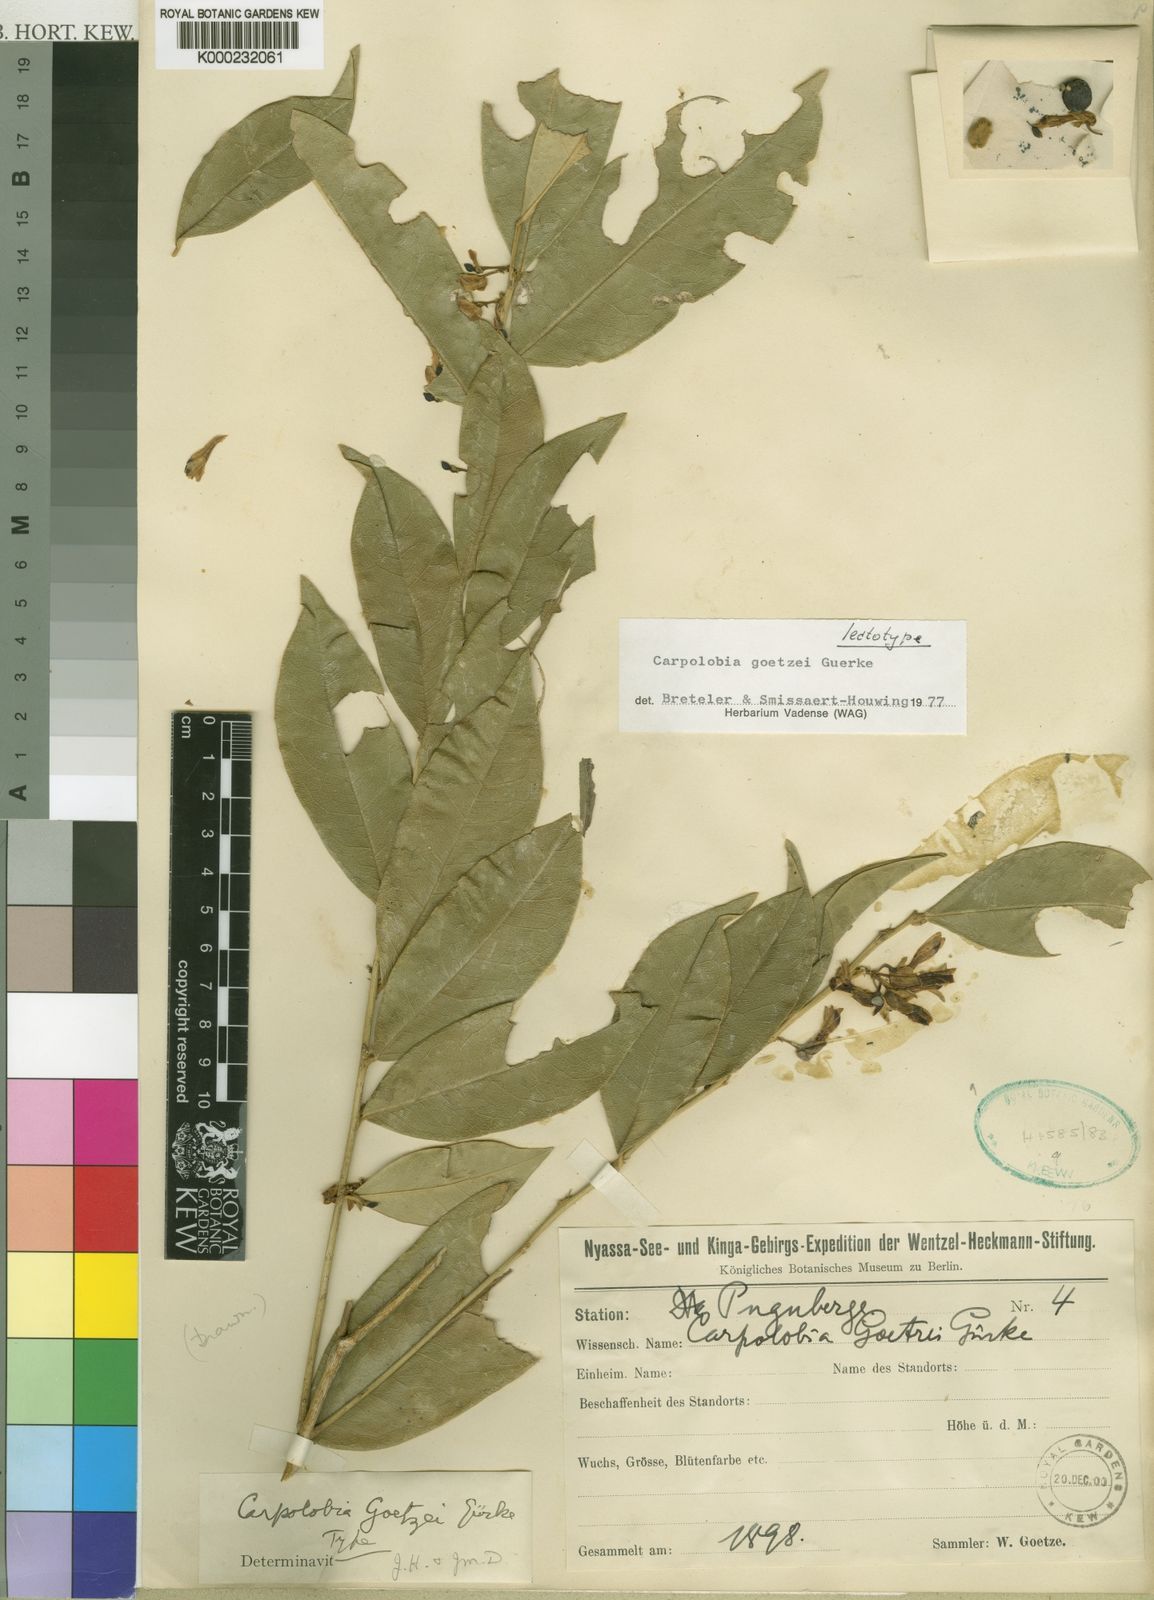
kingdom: Plantae
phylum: Tracheophyta
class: Magnoliopsida
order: Fabales
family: Polygalaceae
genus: Carpolobia
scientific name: Carpolobia
